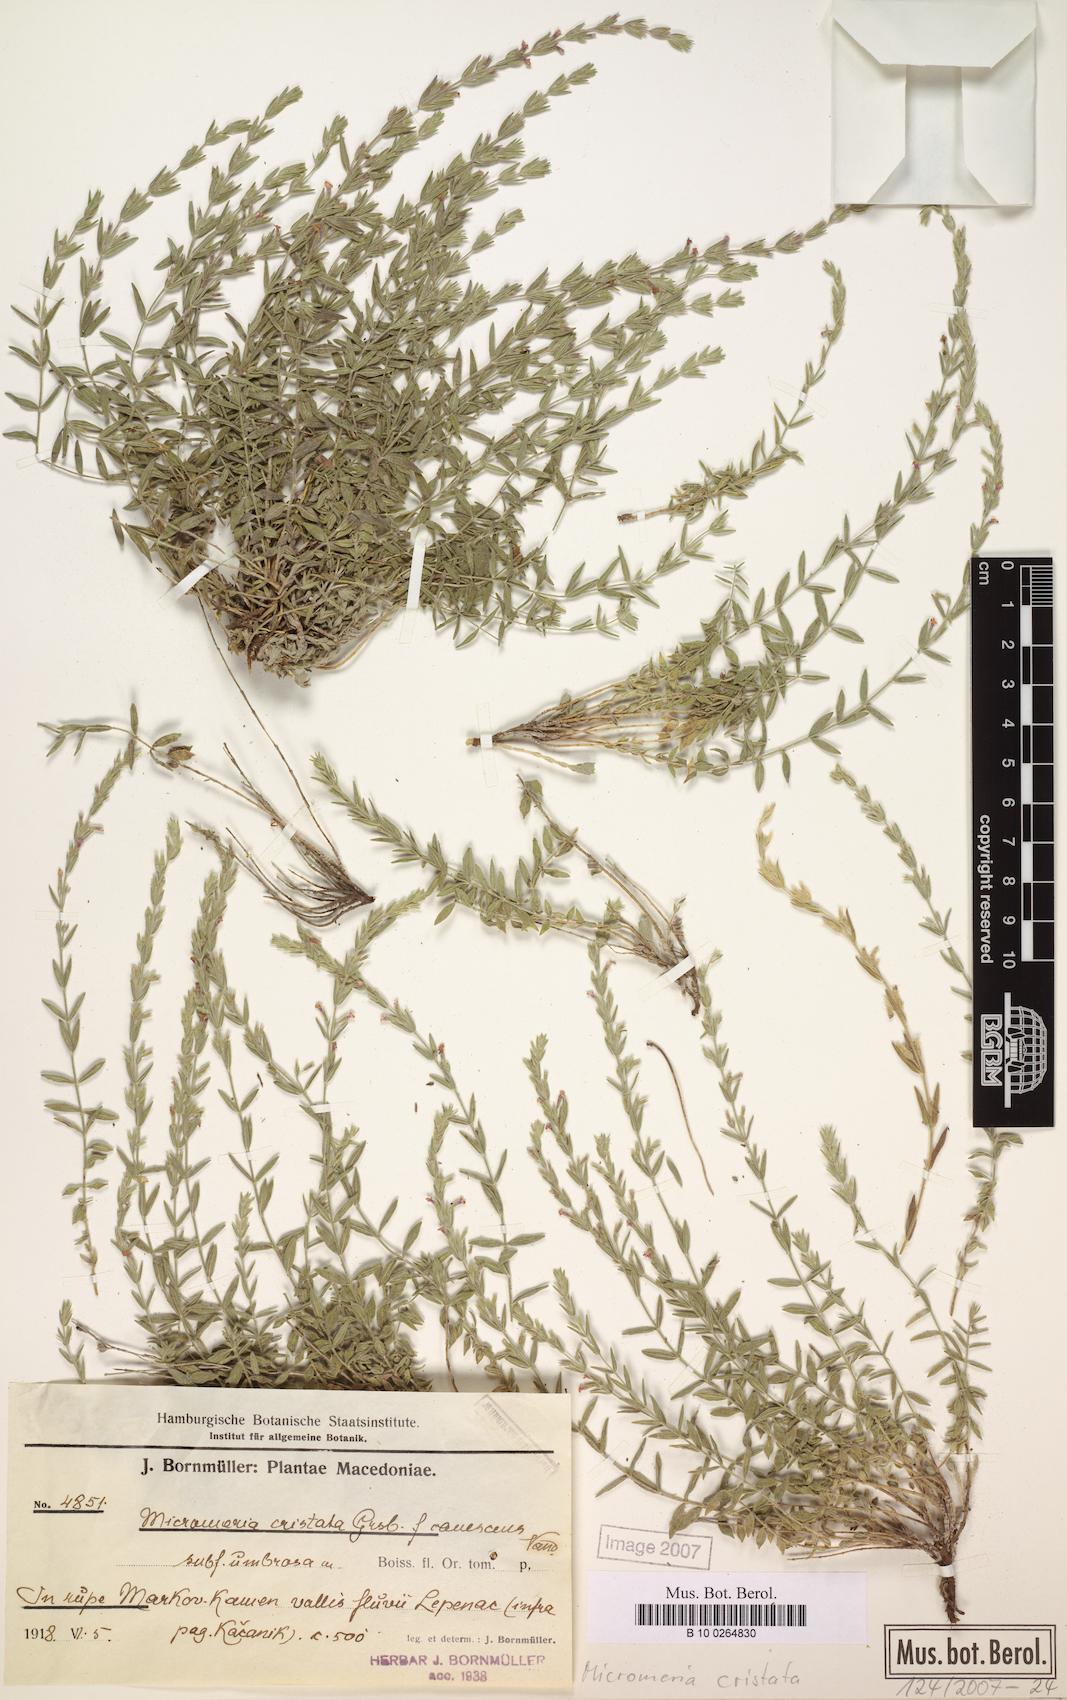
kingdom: Plantae
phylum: Tracheophyta
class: Magnoliopsida
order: Lamiales
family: Lamiaceae
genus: Micromeria
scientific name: Micromeria cristata
